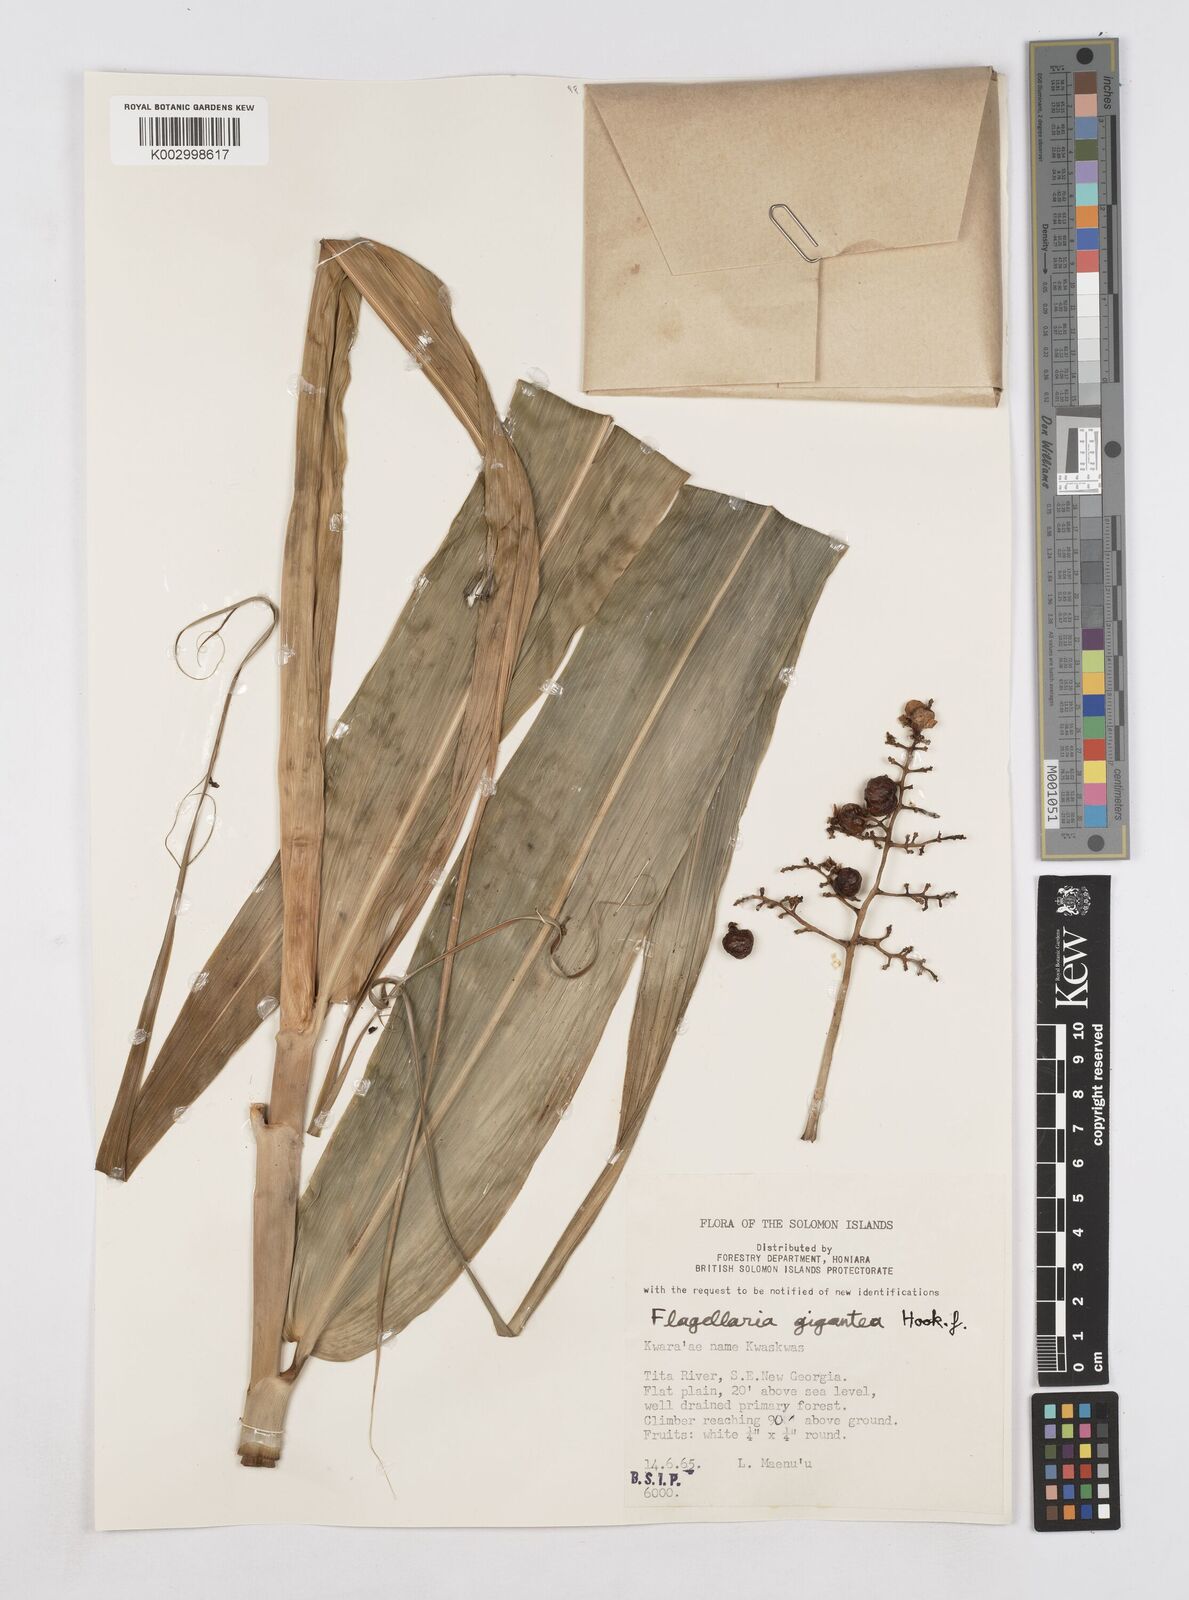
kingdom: Plantae
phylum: Tracheophyta
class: Liliopsida
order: Poales
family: Flagellariaceae
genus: Flagellaria
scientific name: Flagellaria gigantea
